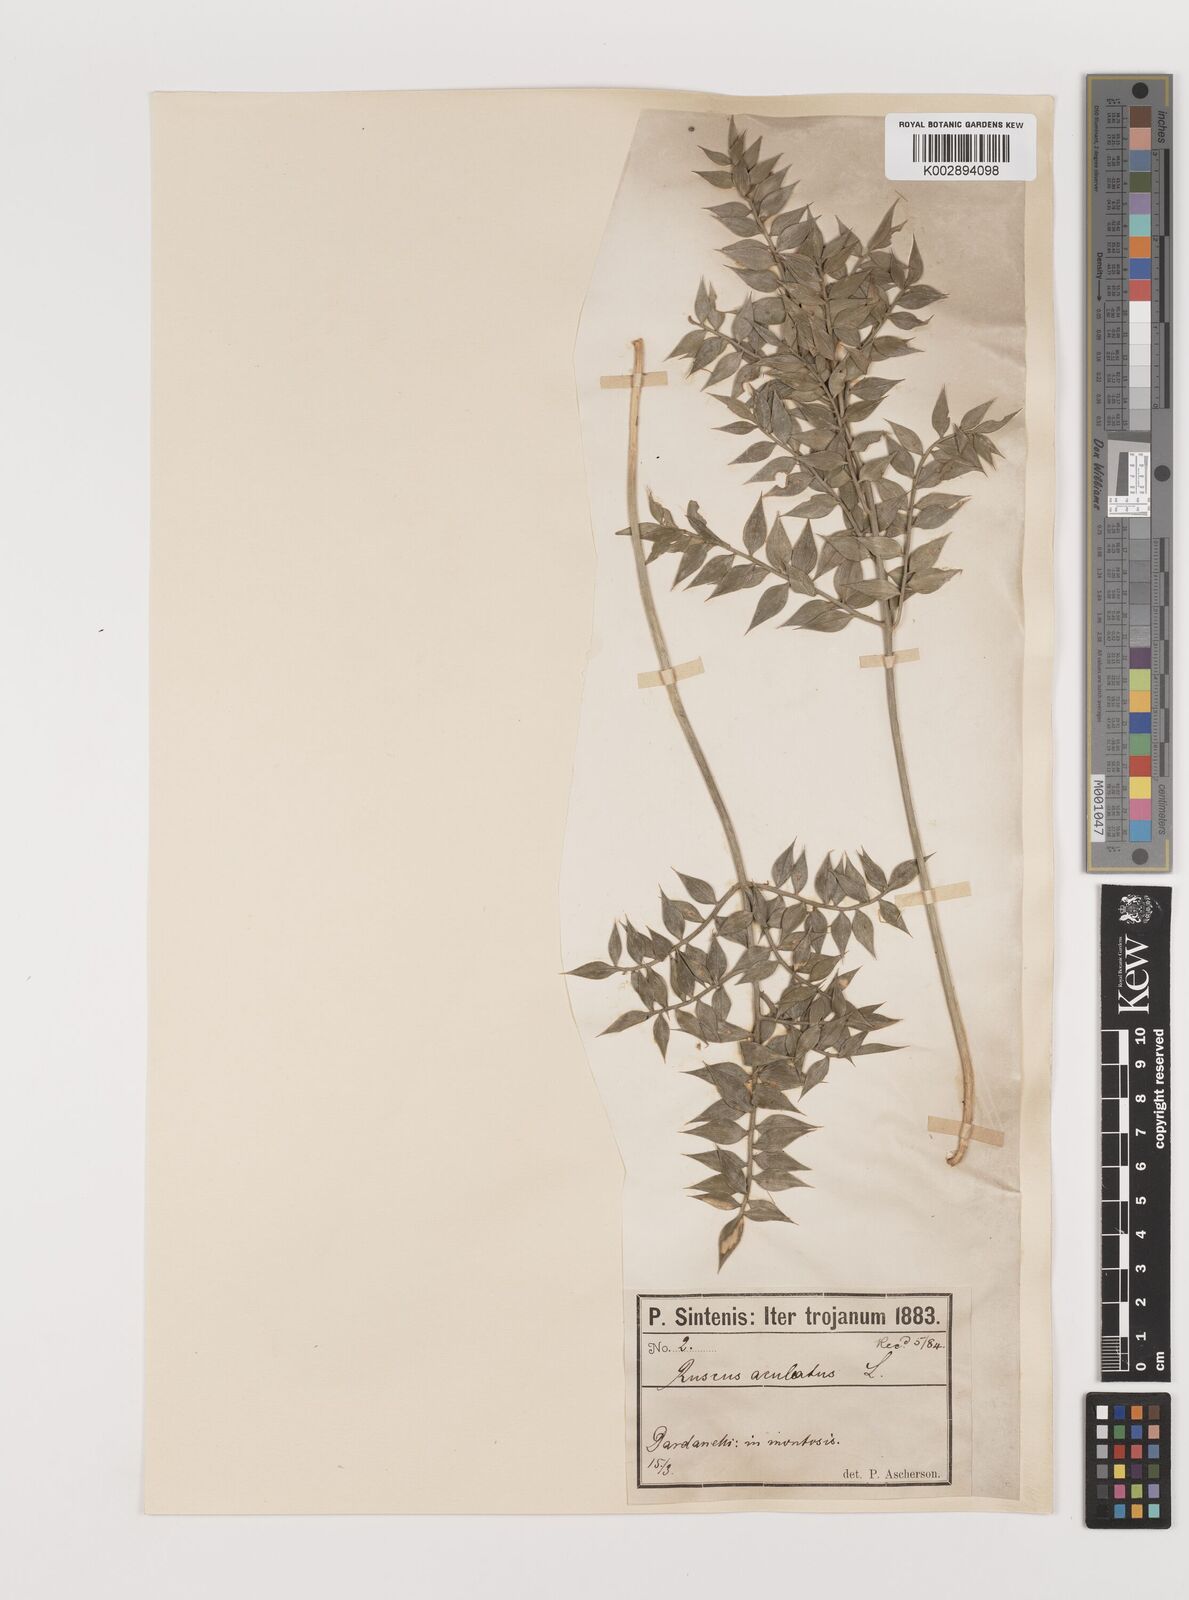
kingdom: Plantae
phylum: Tracheophyta
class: Liliopsida
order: Asparagales
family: Asparagaceae
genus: Ruscus
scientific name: Ruscus aculeatus
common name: Butcher's-broom
